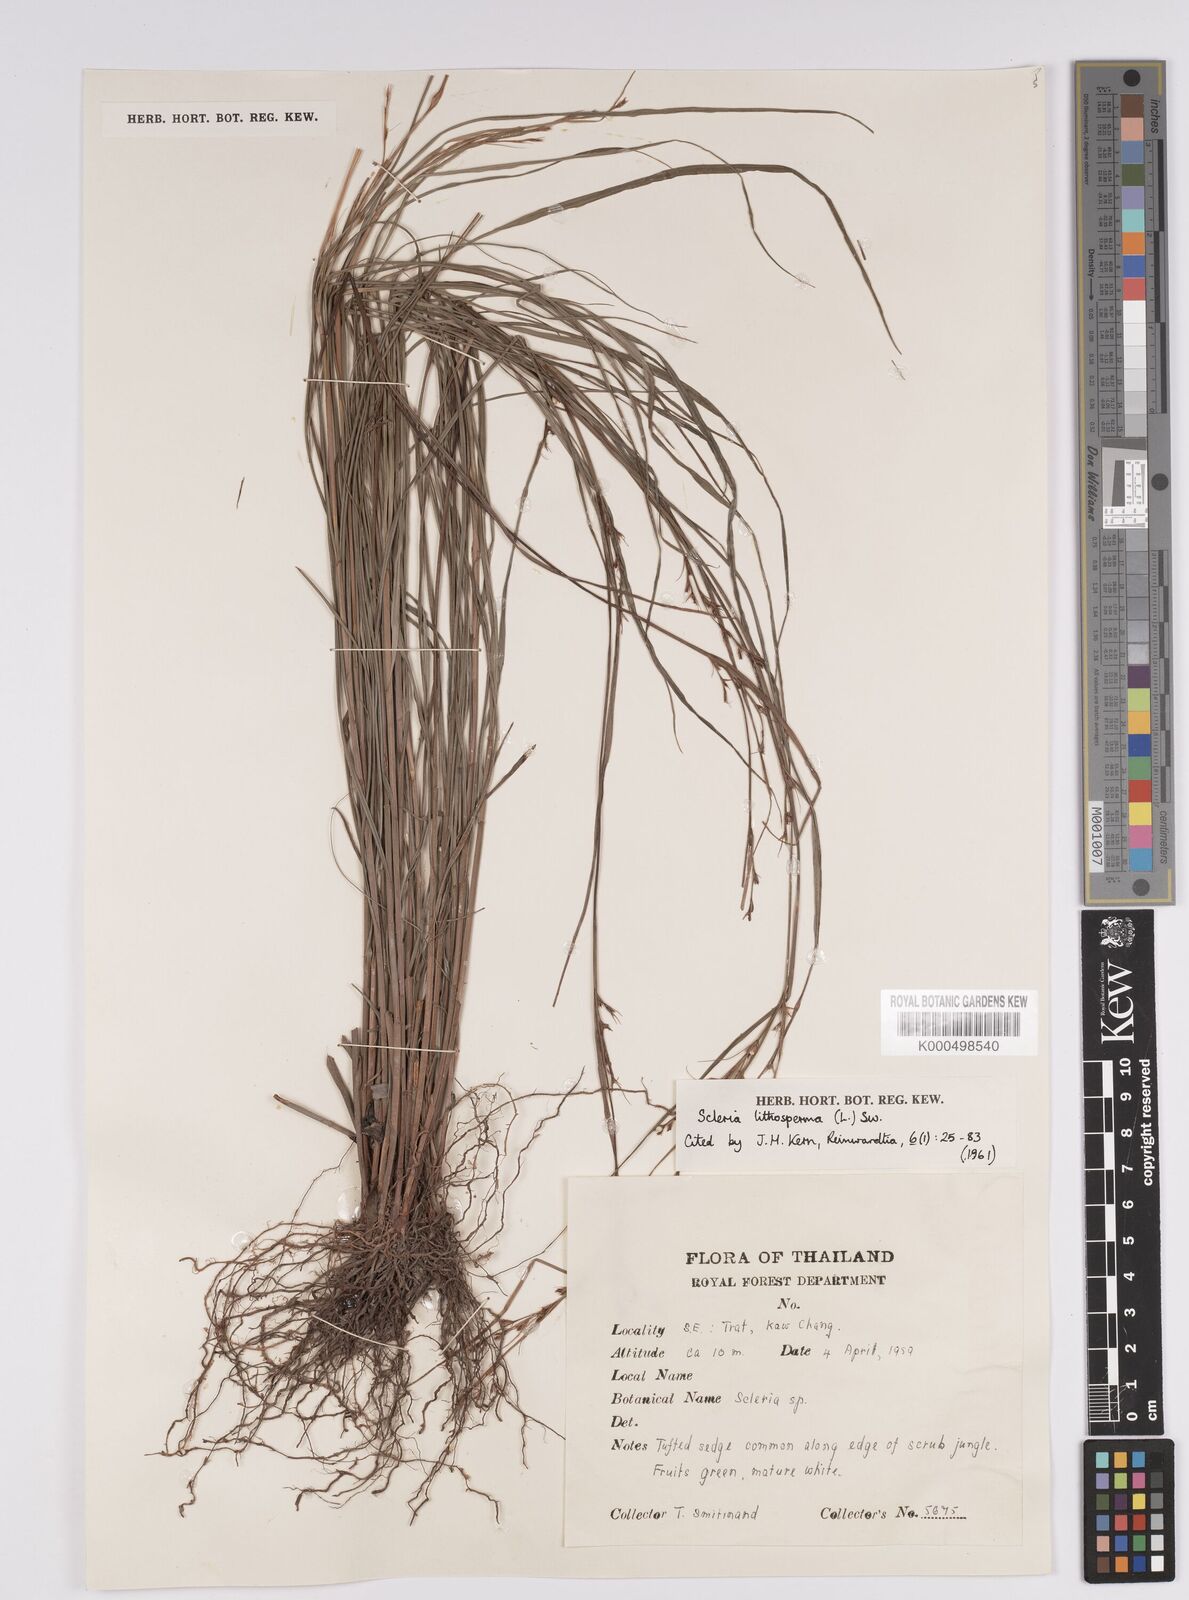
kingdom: Plantae
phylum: Tracheophyta
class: Liliopsida
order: Poales
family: Cyperaceae
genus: Scleria
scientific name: Scleria lithosperma
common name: Florida keys nut-rush
